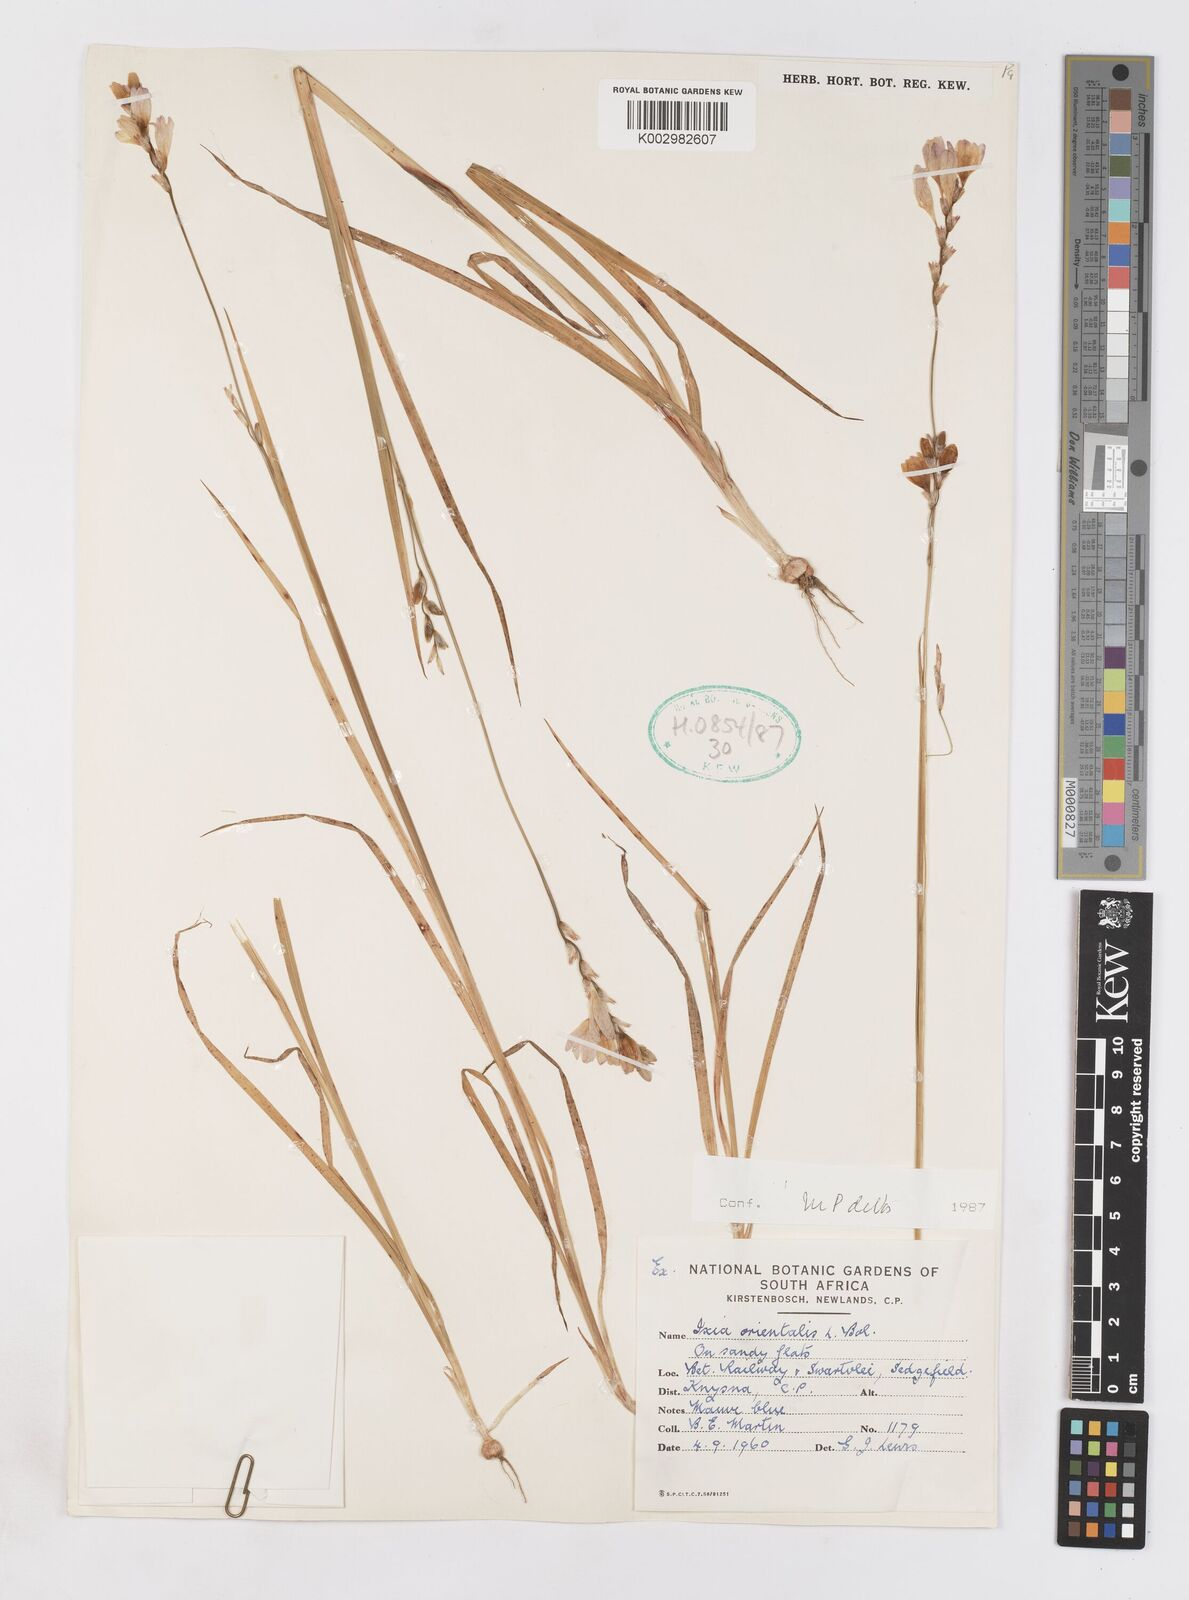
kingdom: Plantae
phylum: Tracheophyta
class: Liliopsida
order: Asparagales
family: Iridaceae
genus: Ixia
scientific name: Ixia orientalis
